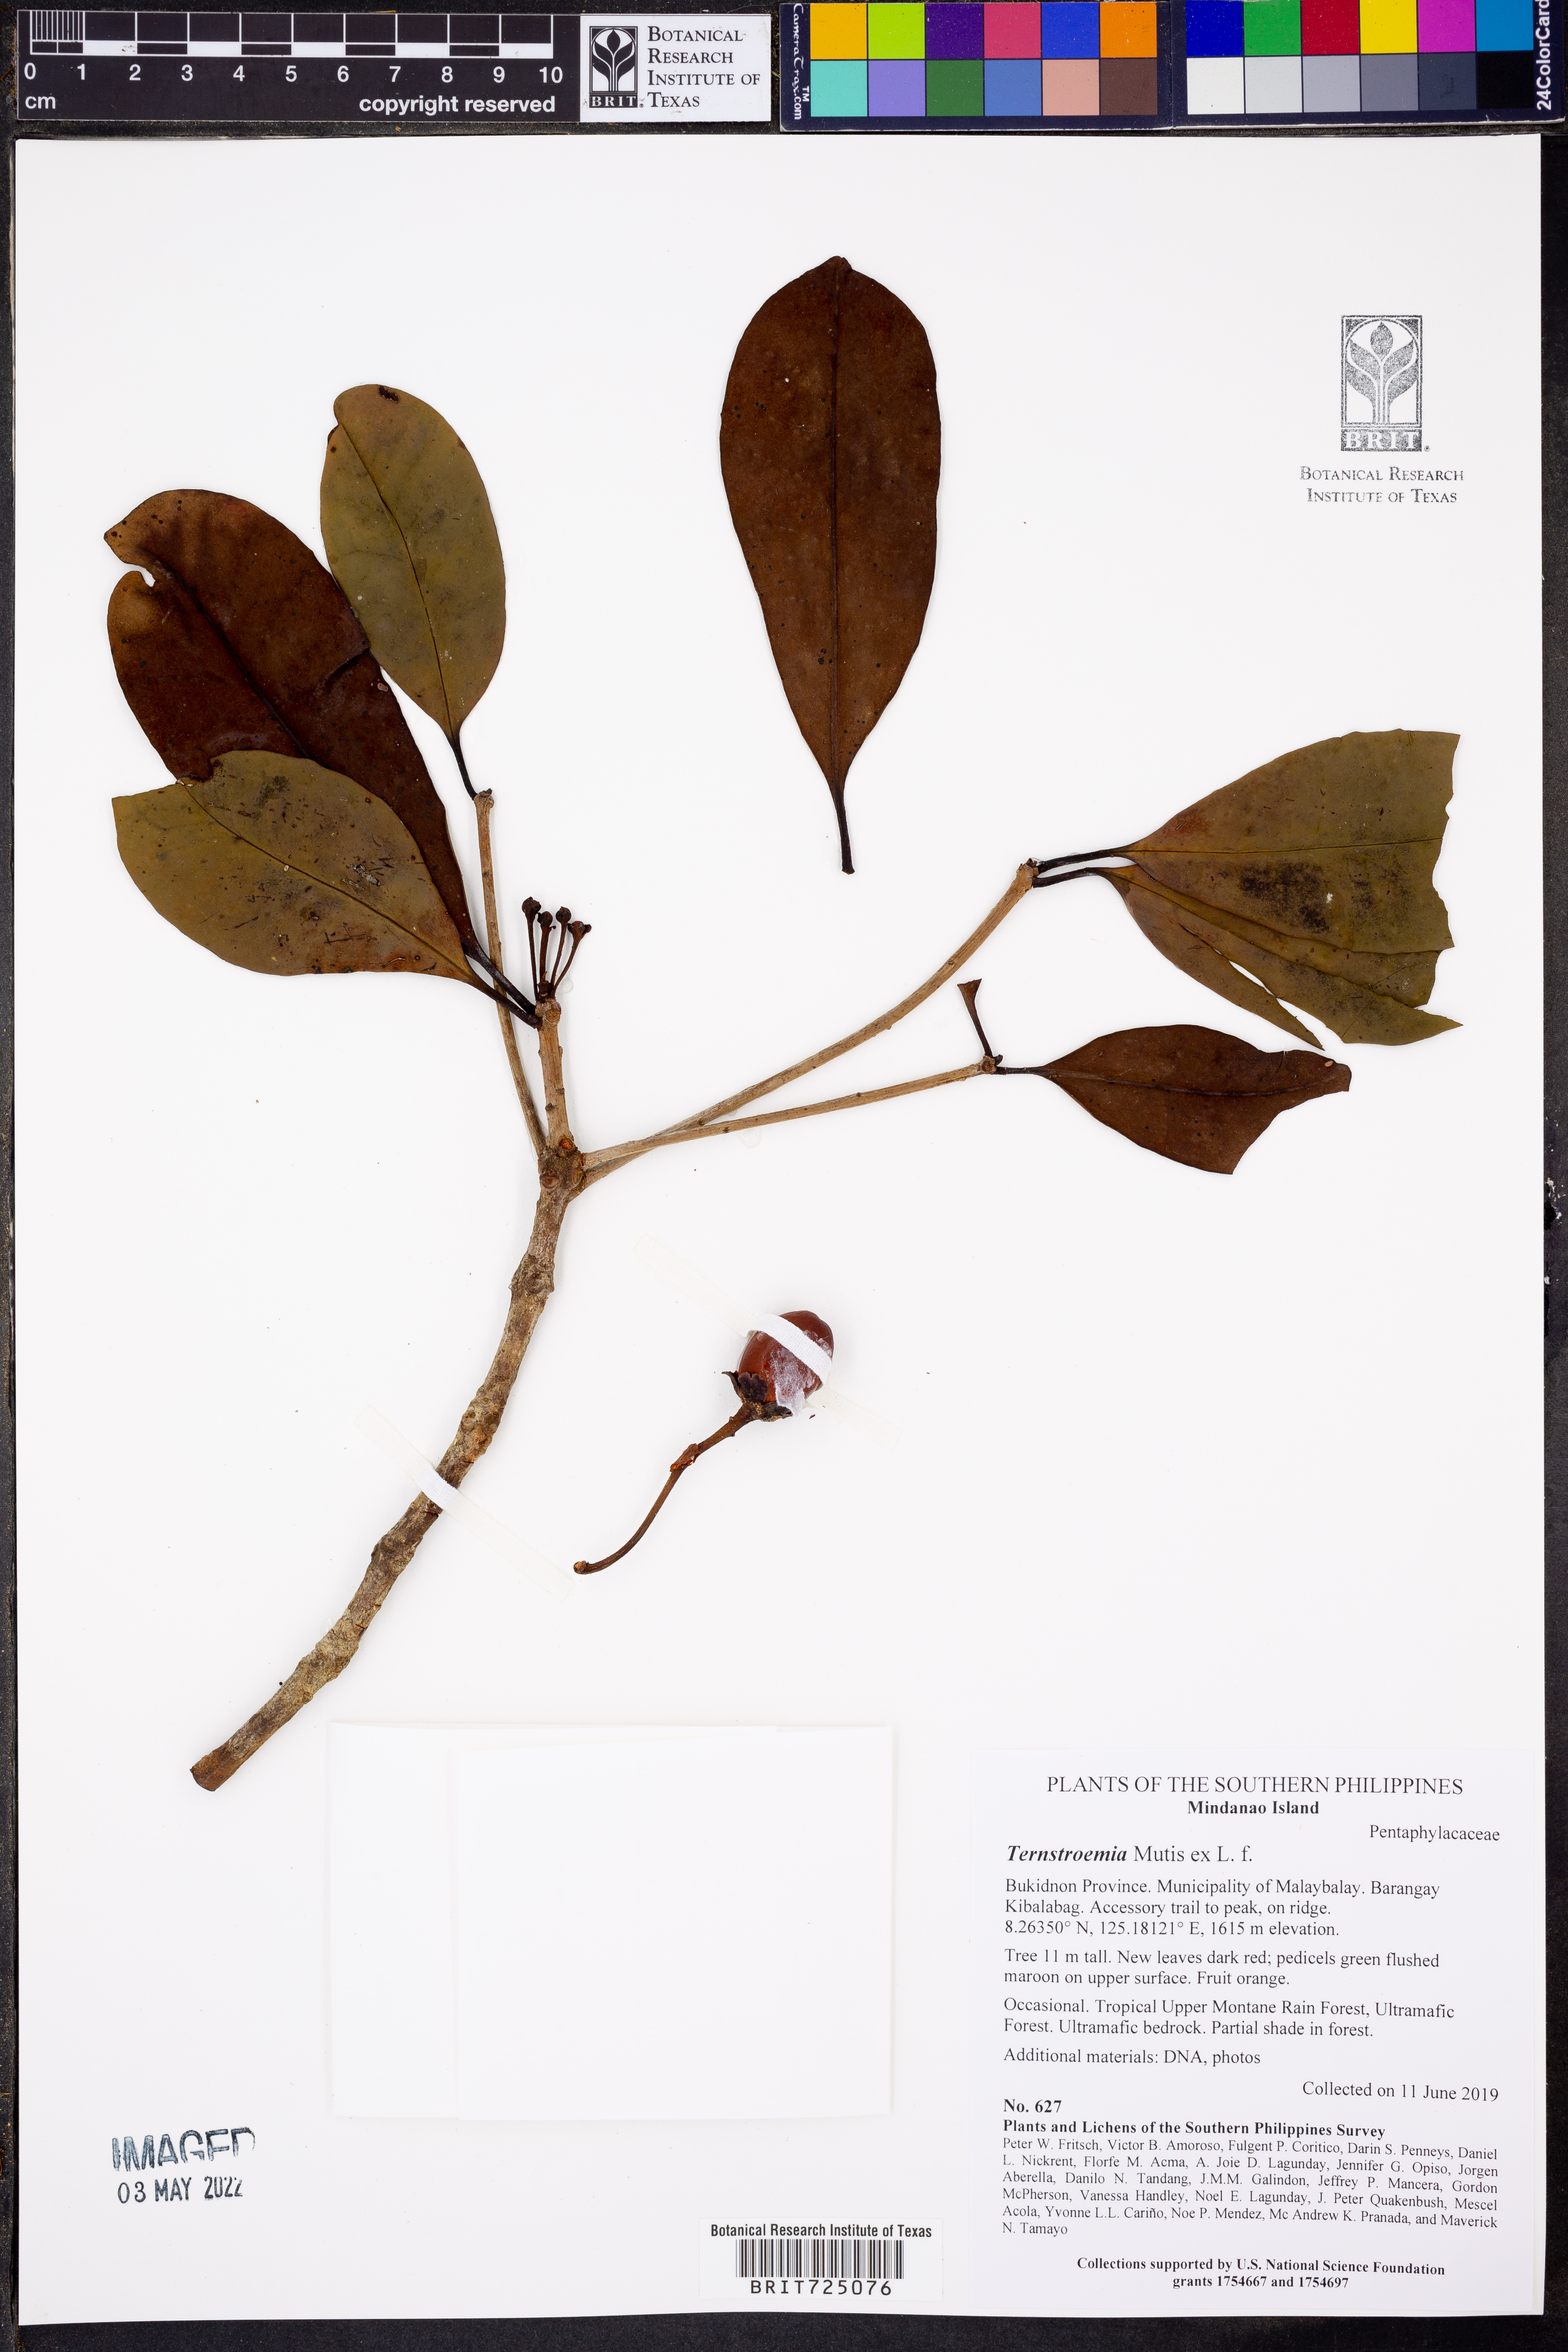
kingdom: Plantae
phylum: Tracheophyta
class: Magnoliopsida
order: Ericales
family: Pentaphylacaceae
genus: Ternstroemia
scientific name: Ternstroemia
